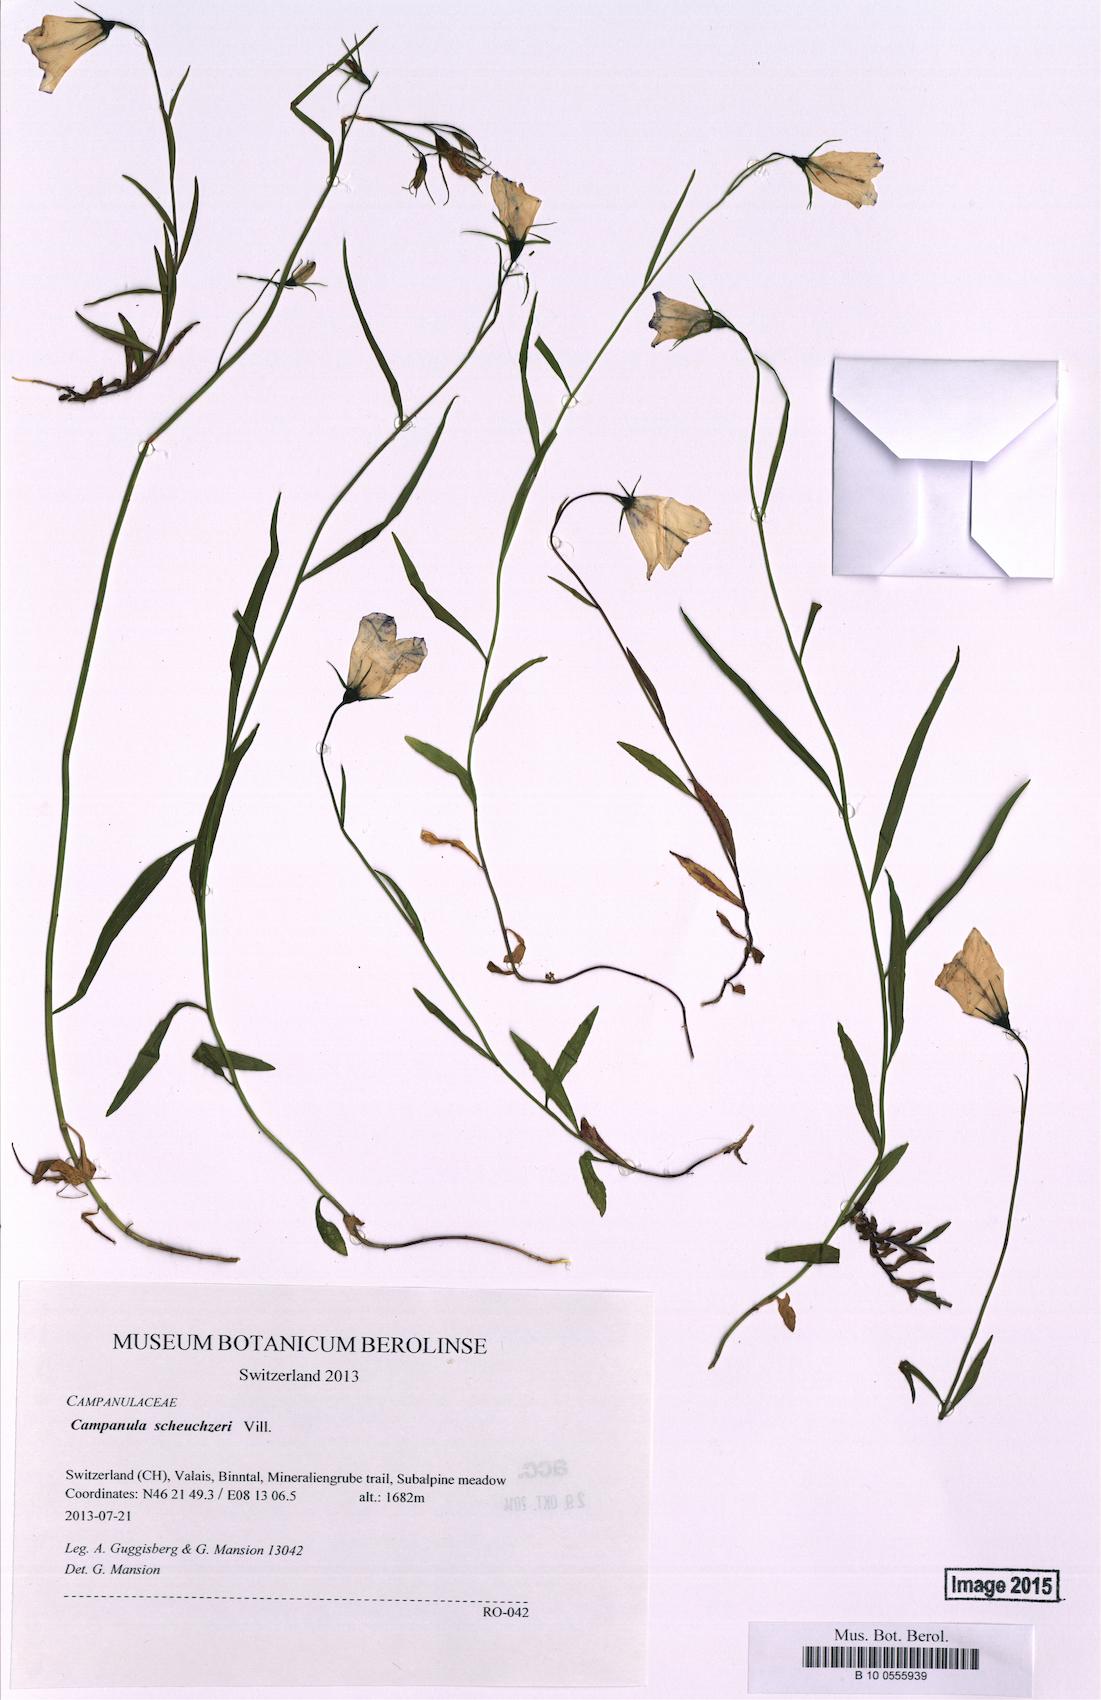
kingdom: Plantae
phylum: Tracheophyta
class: Magnoliopsida
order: Asterales
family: Campanulaceae
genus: Campanula
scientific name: Campanula scheuchzeri
